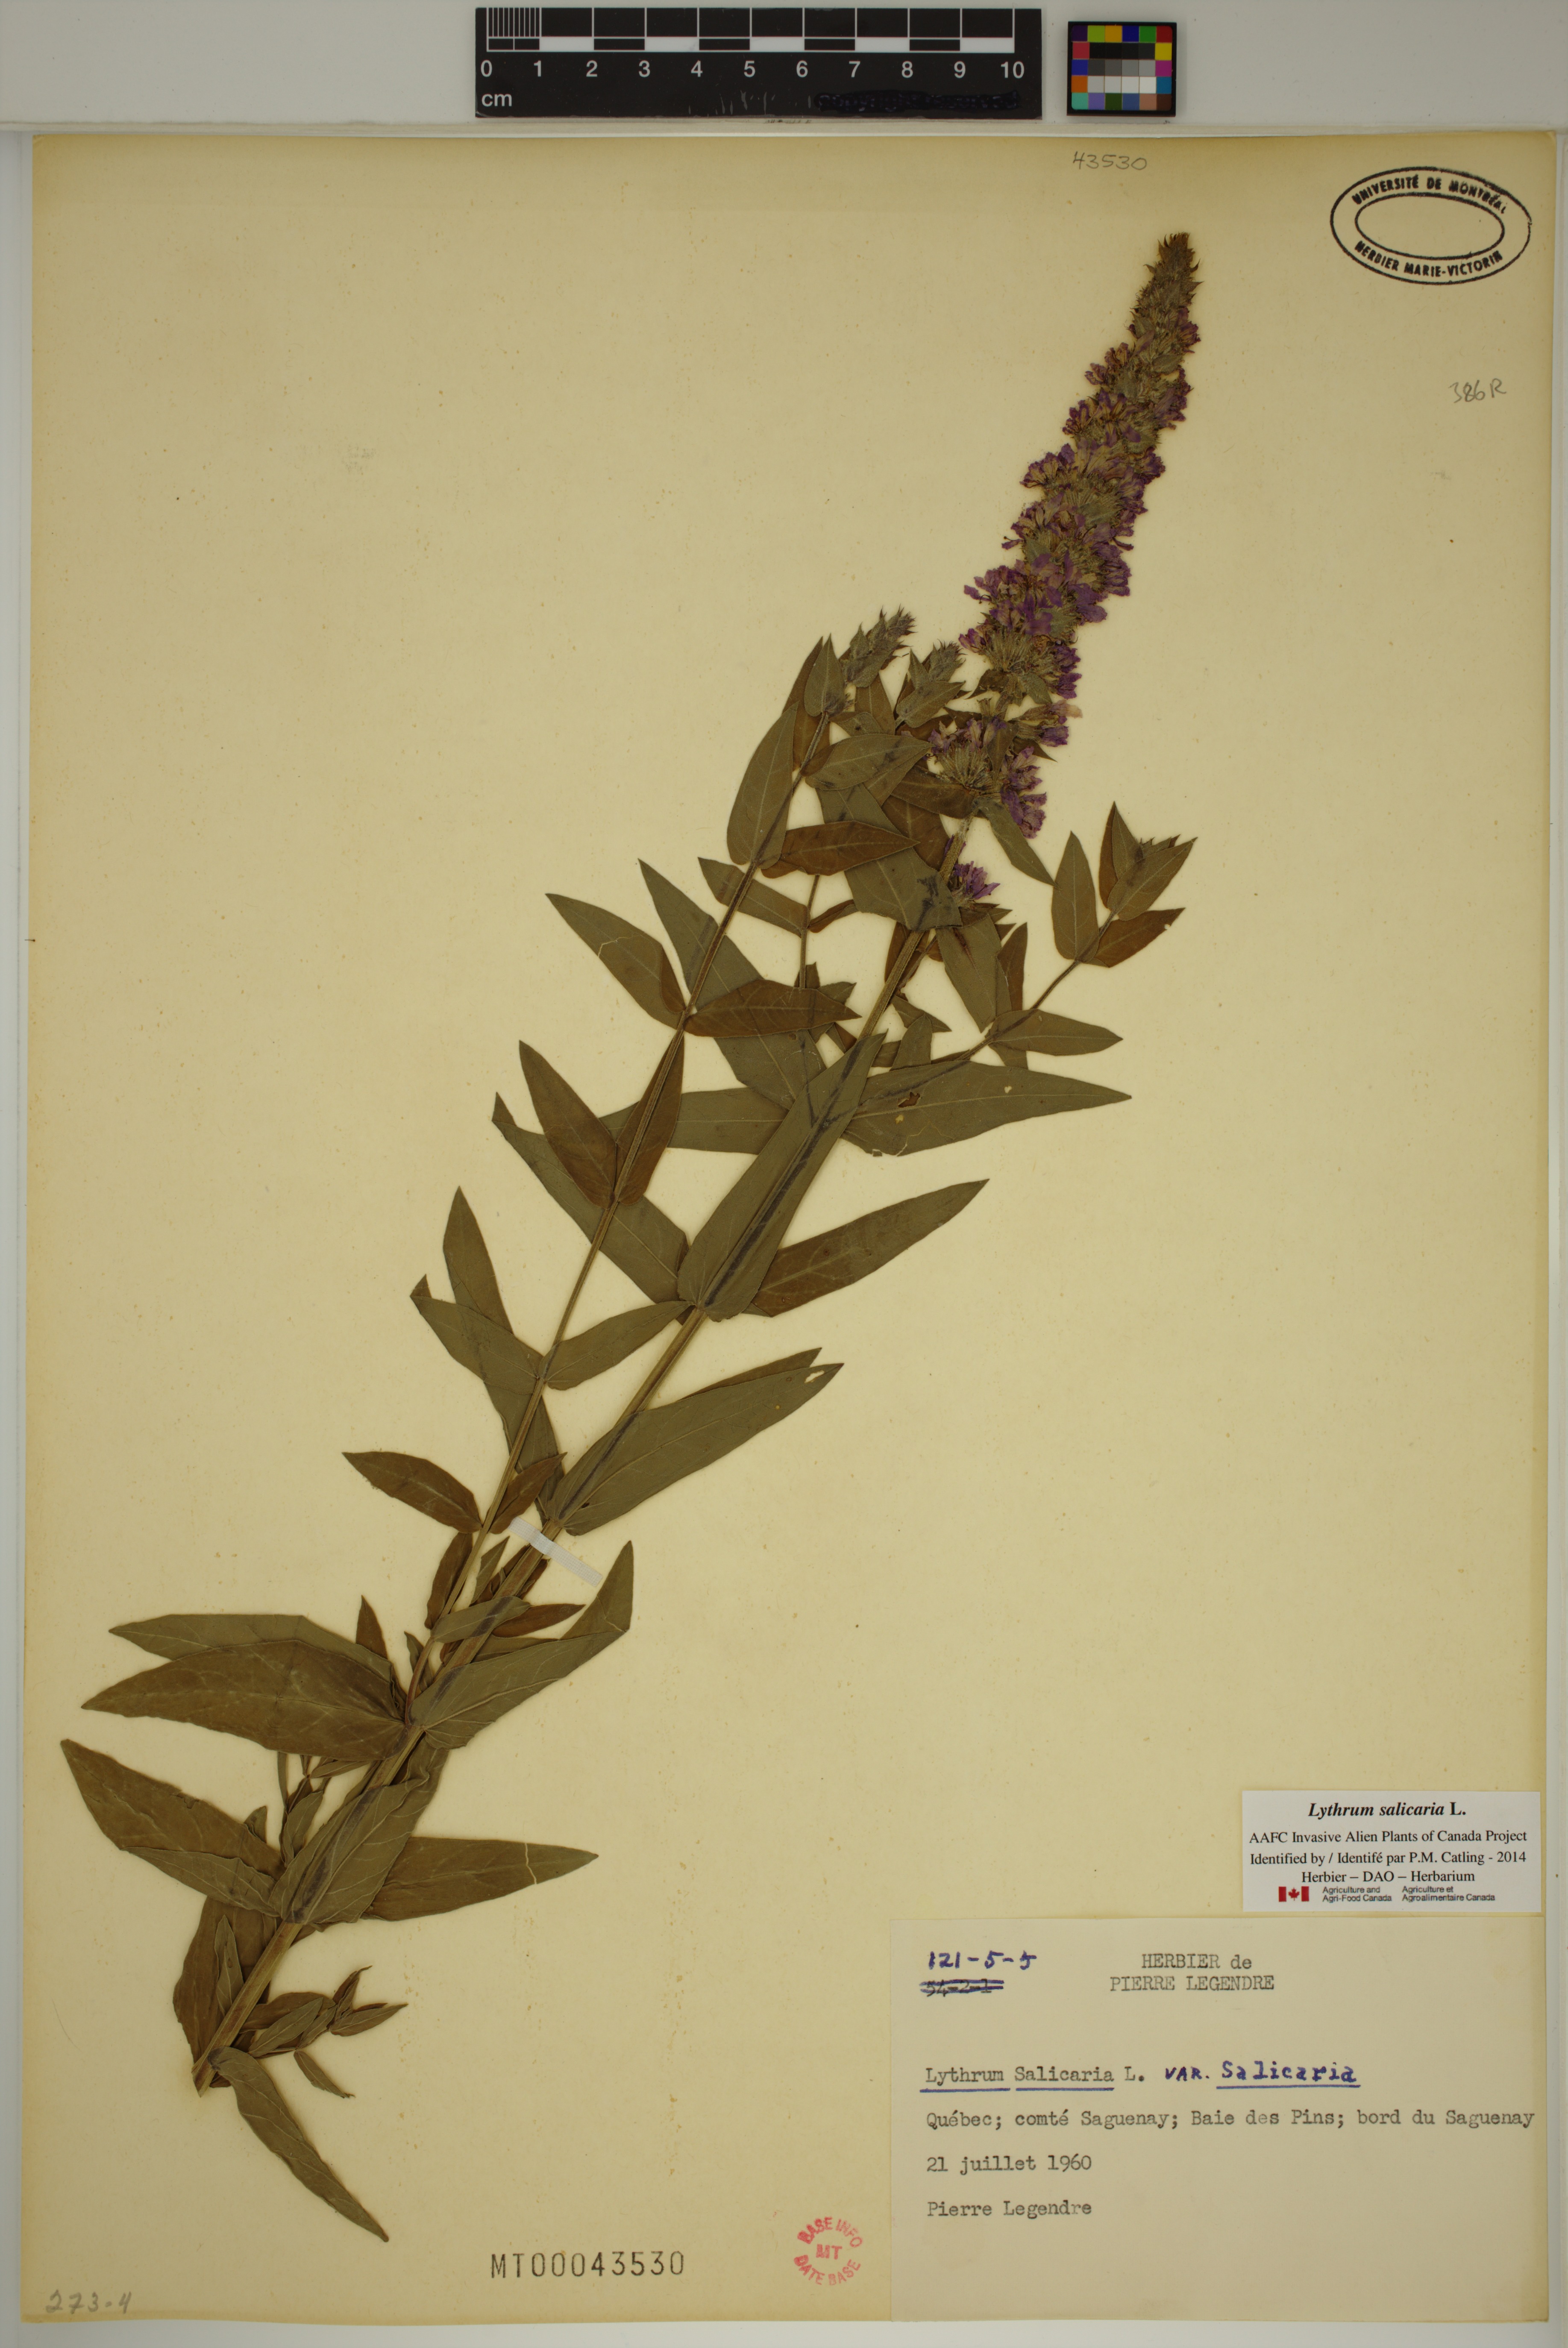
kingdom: Plantae
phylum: Tracheophyta
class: Magnoliopsida
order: Myrtales
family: Lythraceae
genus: Lythrum
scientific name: Lythrum salicaria
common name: Purple loosestrife
